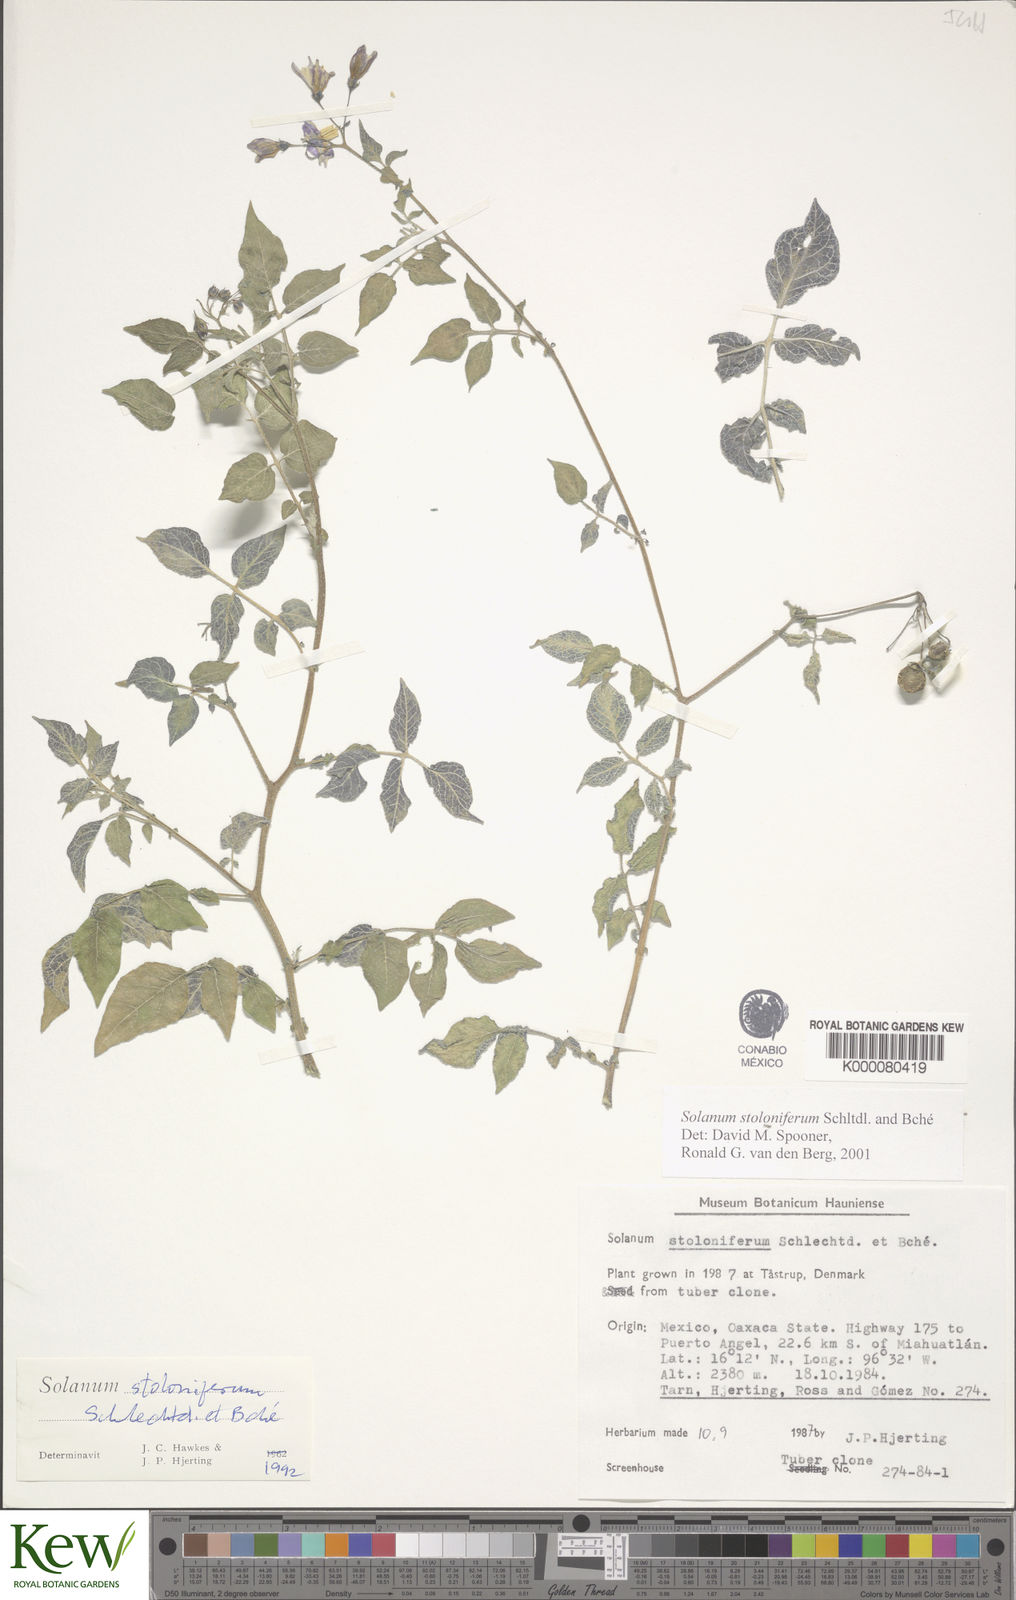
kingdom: Plantae
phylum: Tracheophyta
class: Magnoliopsida
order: Solanales
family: Solanaceae
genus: Solanum
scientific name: Solanum stoloniferum
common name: Fendler's nighshade
